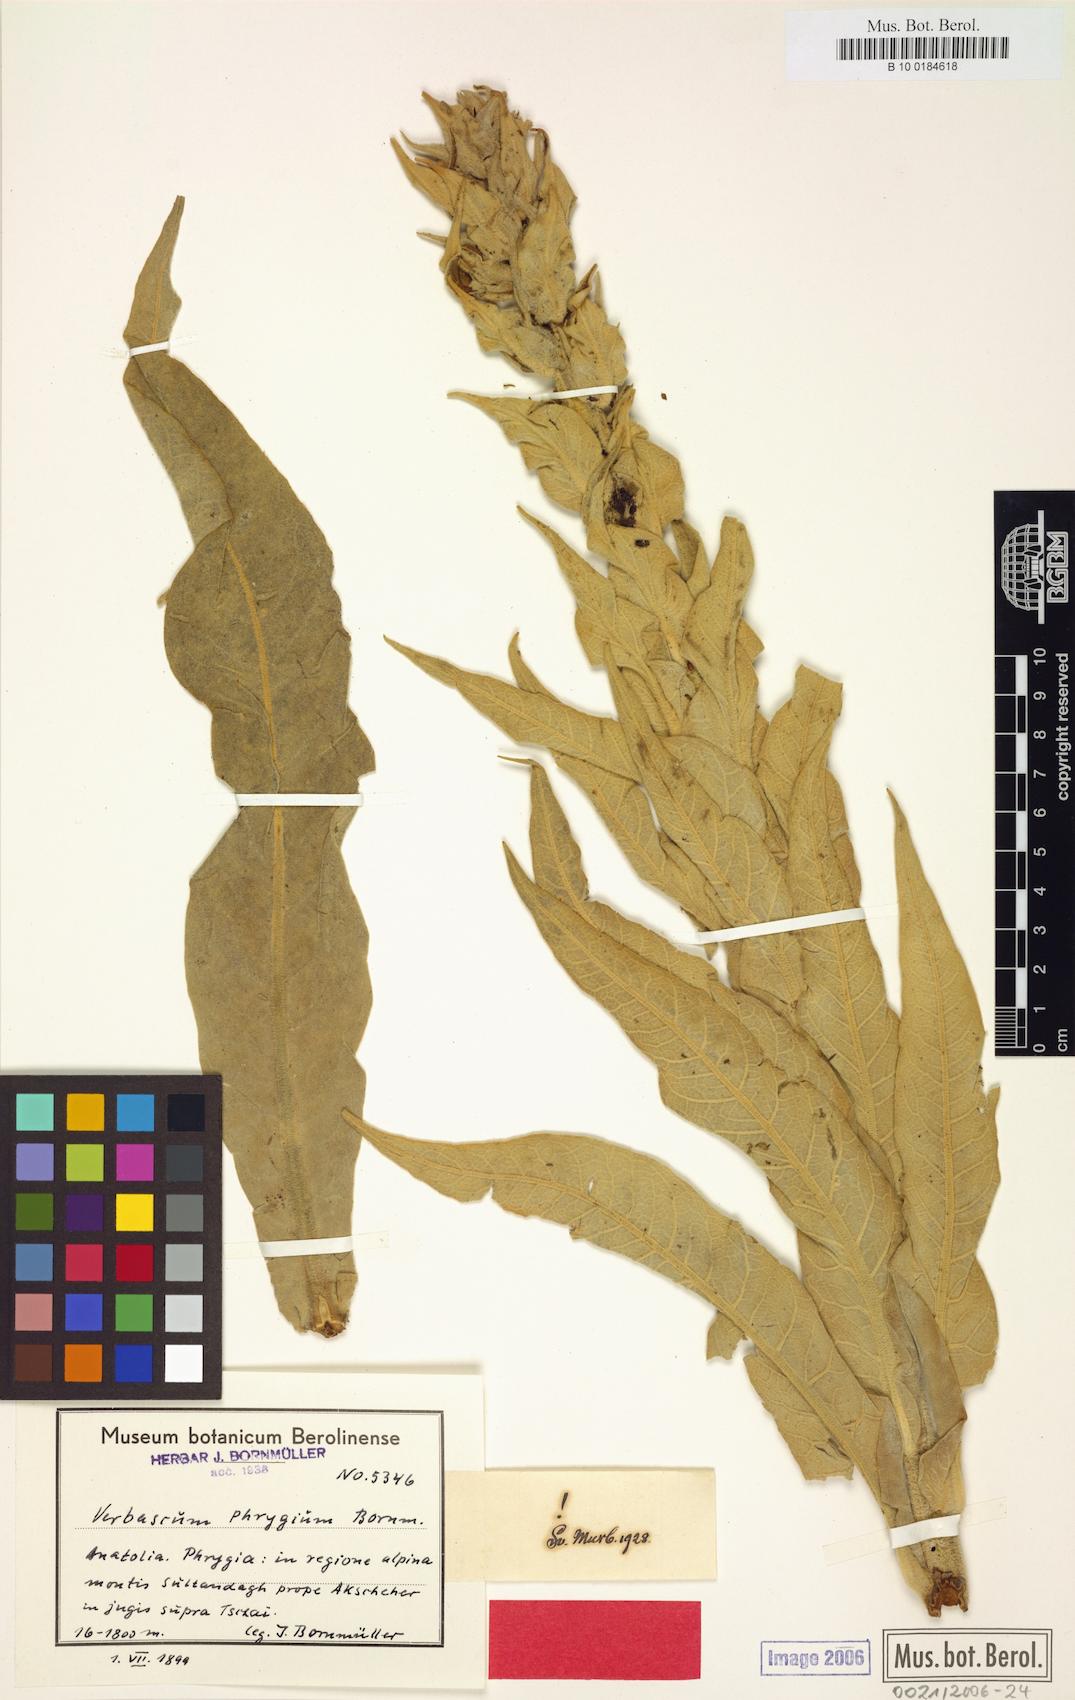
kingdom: Plantae
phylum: Tracheophyta
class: Magnoliopsida
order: Lamiales
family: Scrophulariaceae
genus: Verbascum
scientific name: Verbascum phrygium
